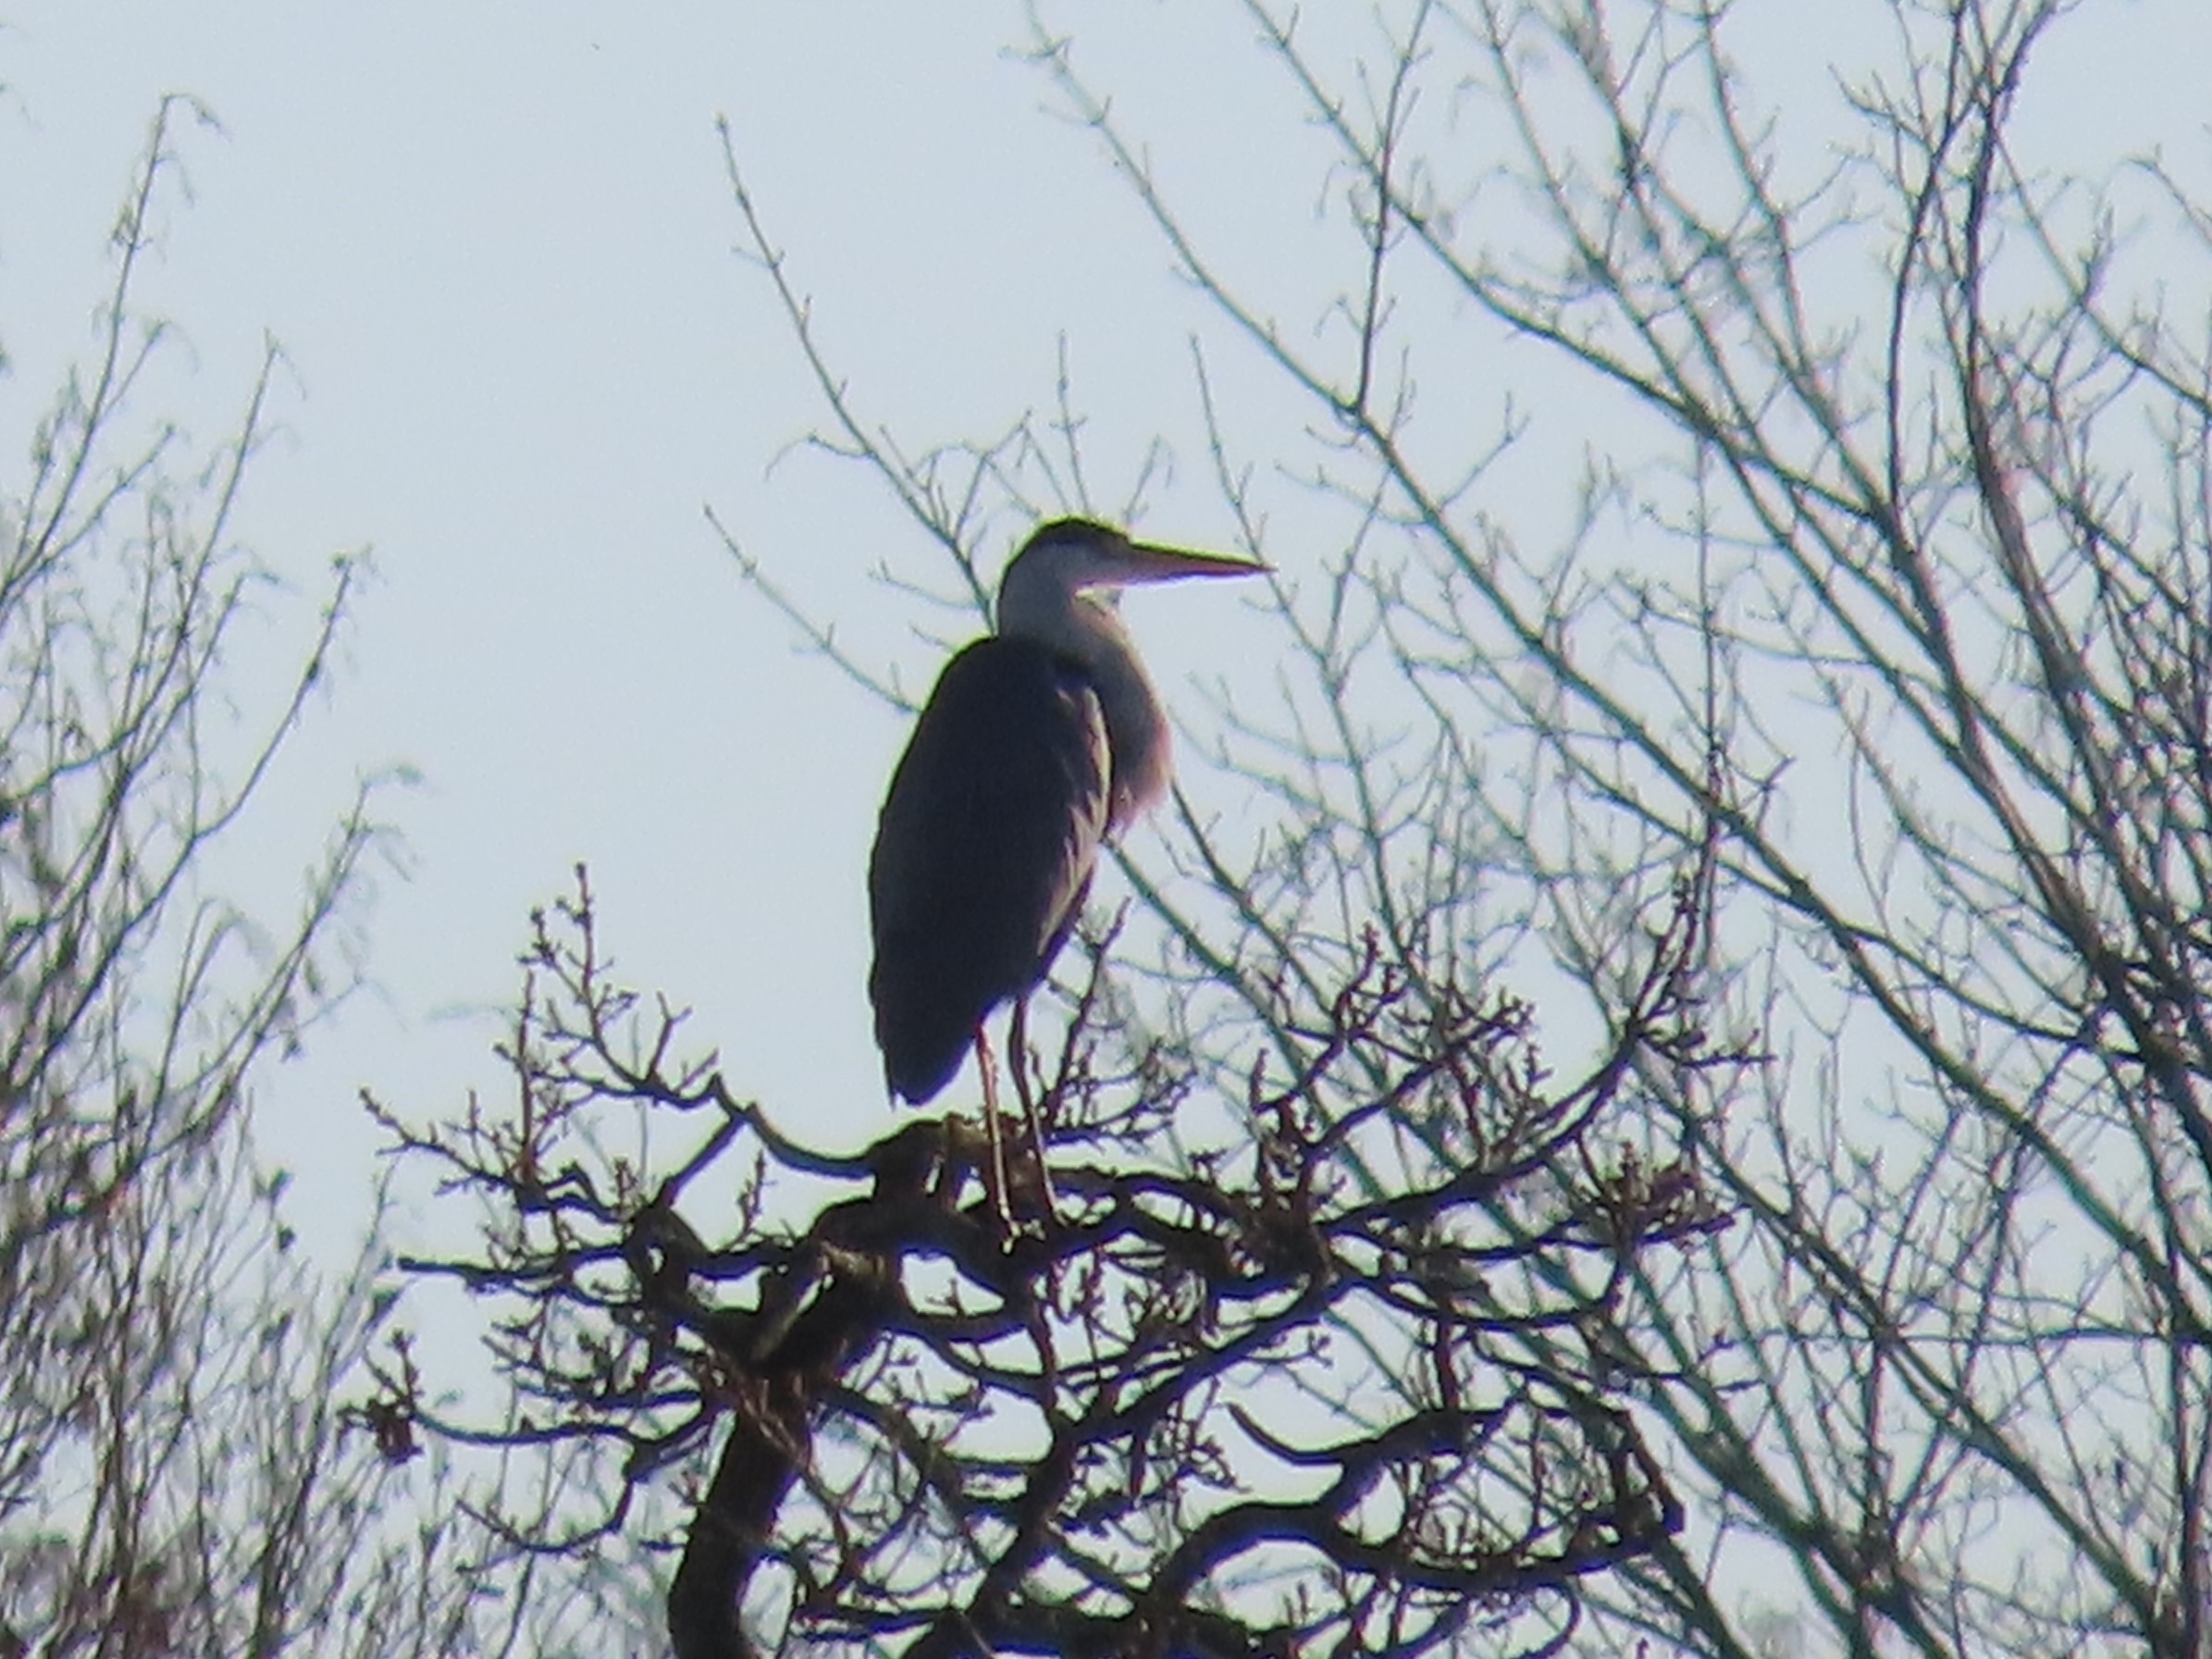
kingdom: Animalia
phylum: Chordata
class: Aves
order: Pelecaniformes
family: Ardeidae
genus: Ardea
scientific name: Ardea cinerea
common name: Fiskehejre
